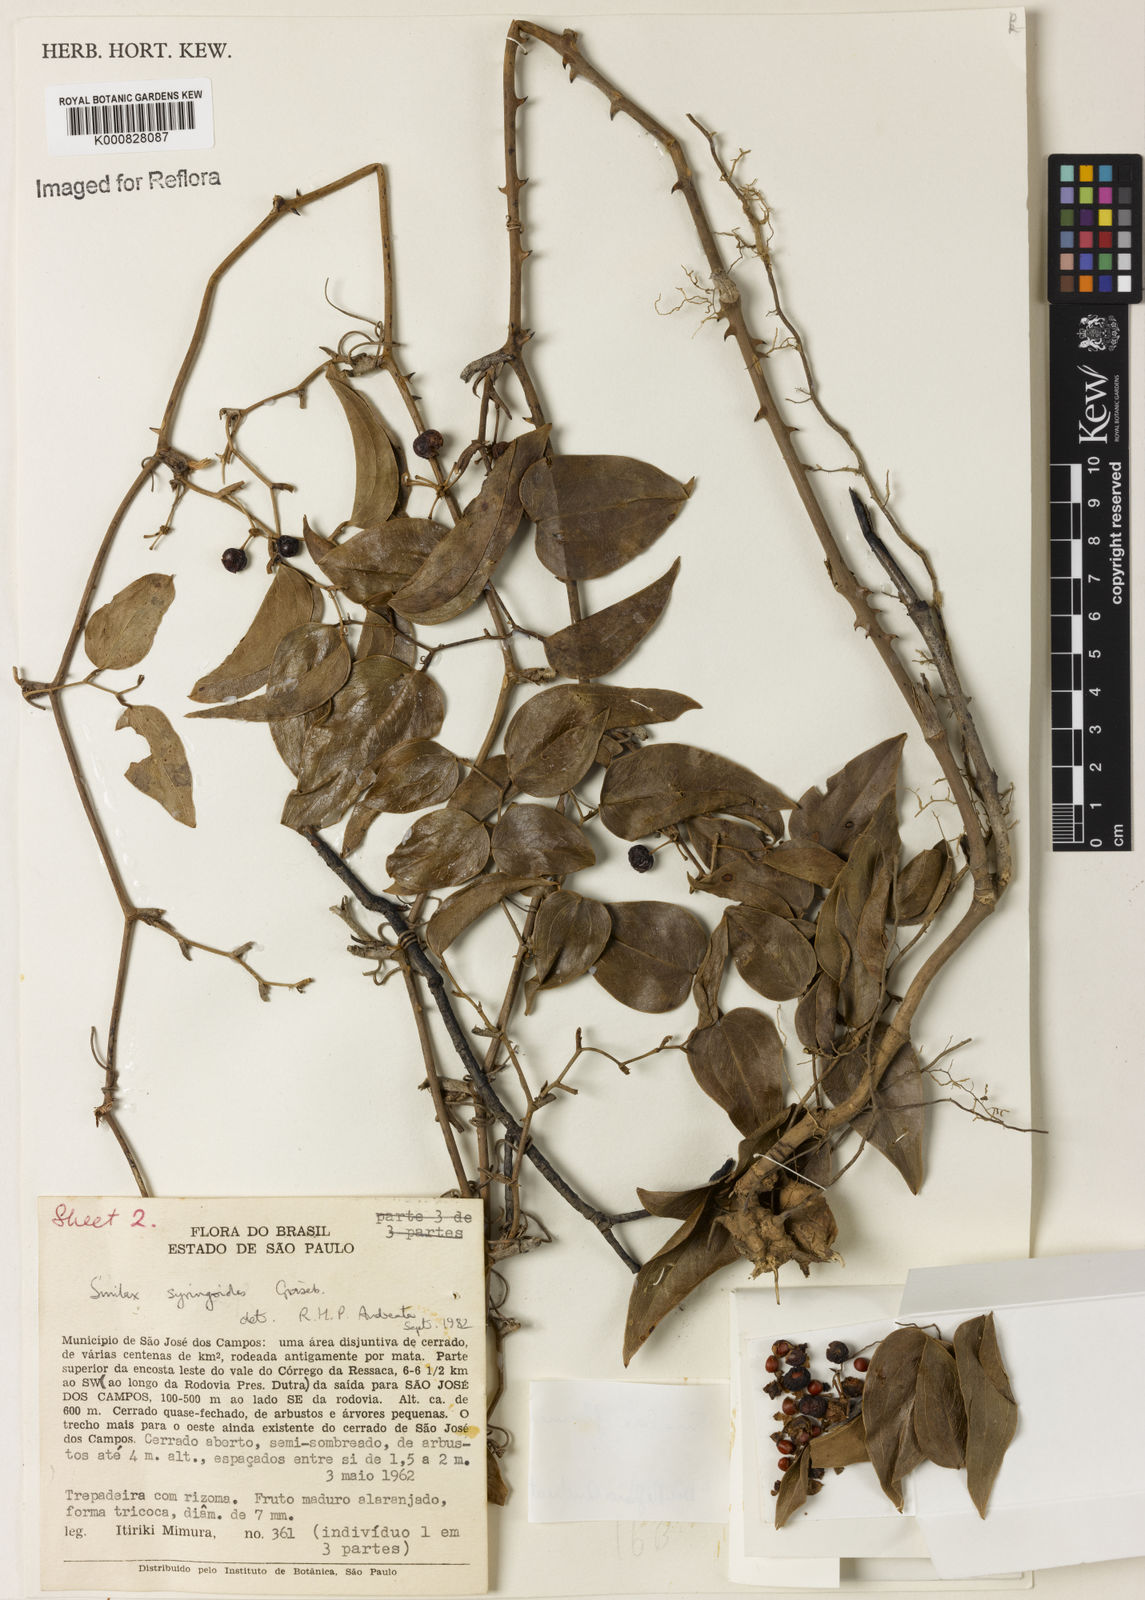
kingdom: Plantae
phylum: Tracheophyta
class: Liliopsida
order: Liliales
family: Smilacaceae
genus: Smilax
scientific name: Smilax fluminensis
